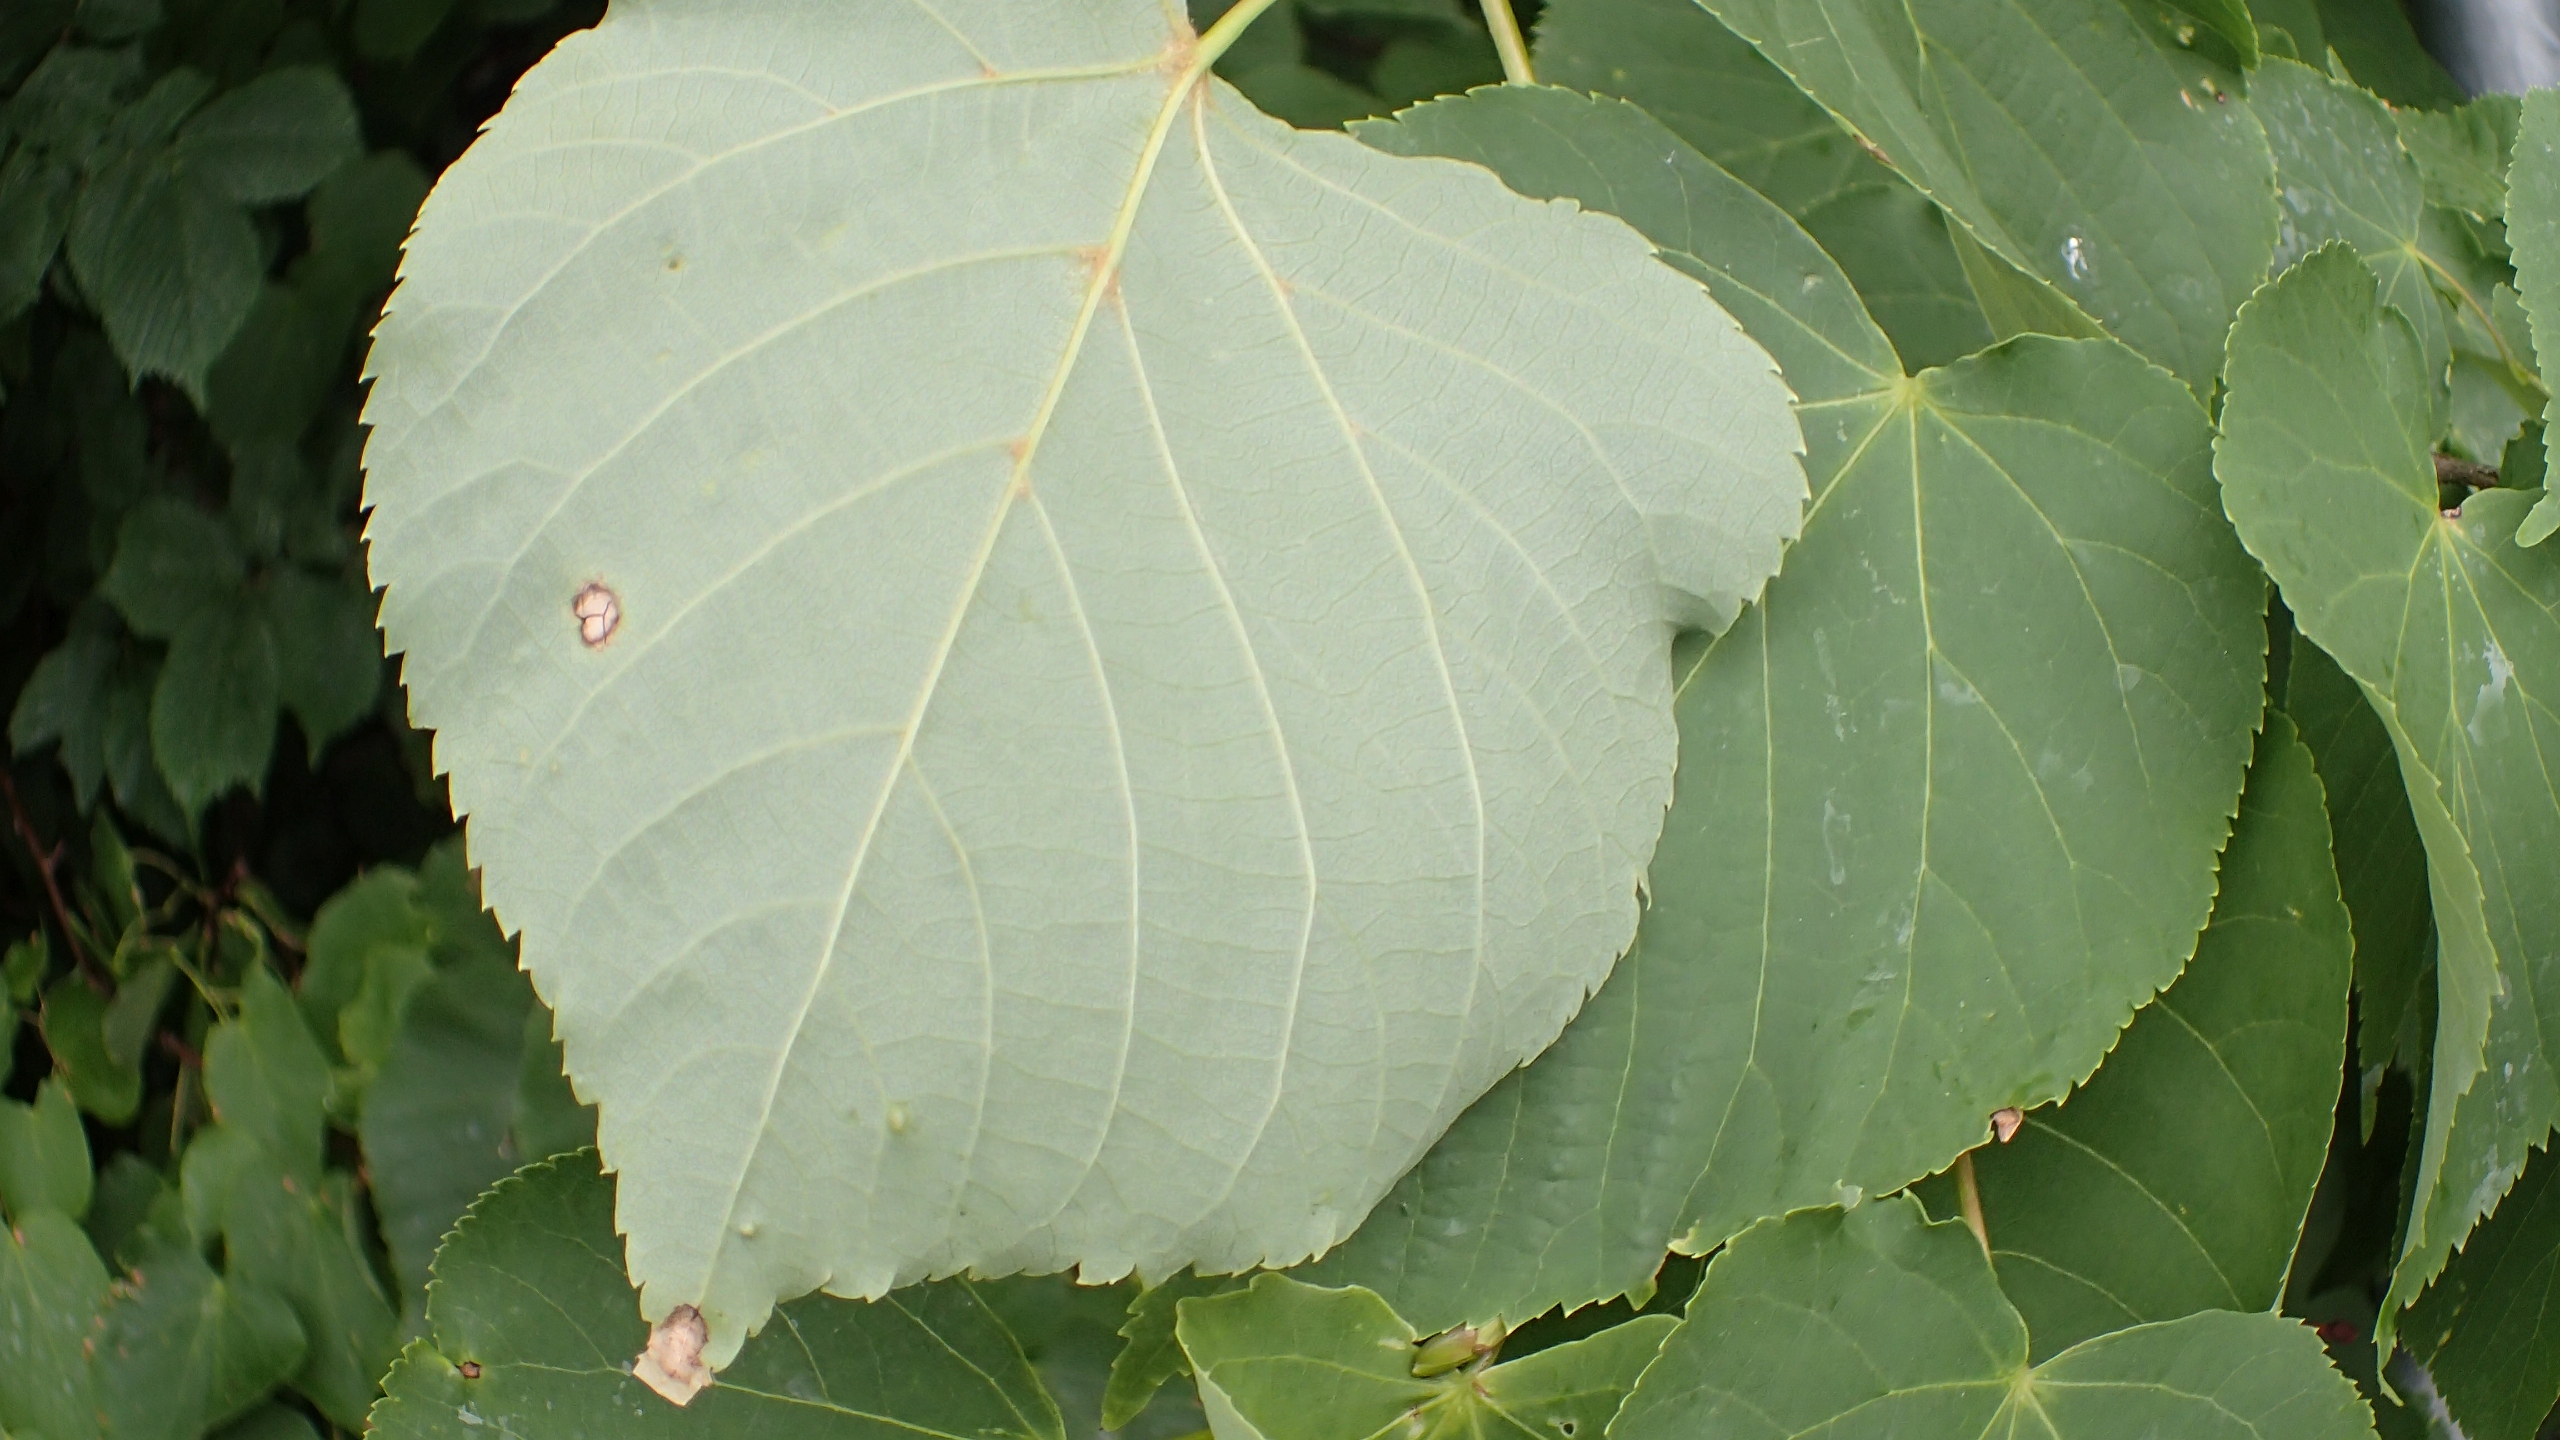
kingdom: Plantae
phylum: Tracheophyta
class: Magnoliopsida
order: Malvales
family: Malvaceae
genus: Tilia
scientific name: Tilia cordata
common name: Småbladet lind
